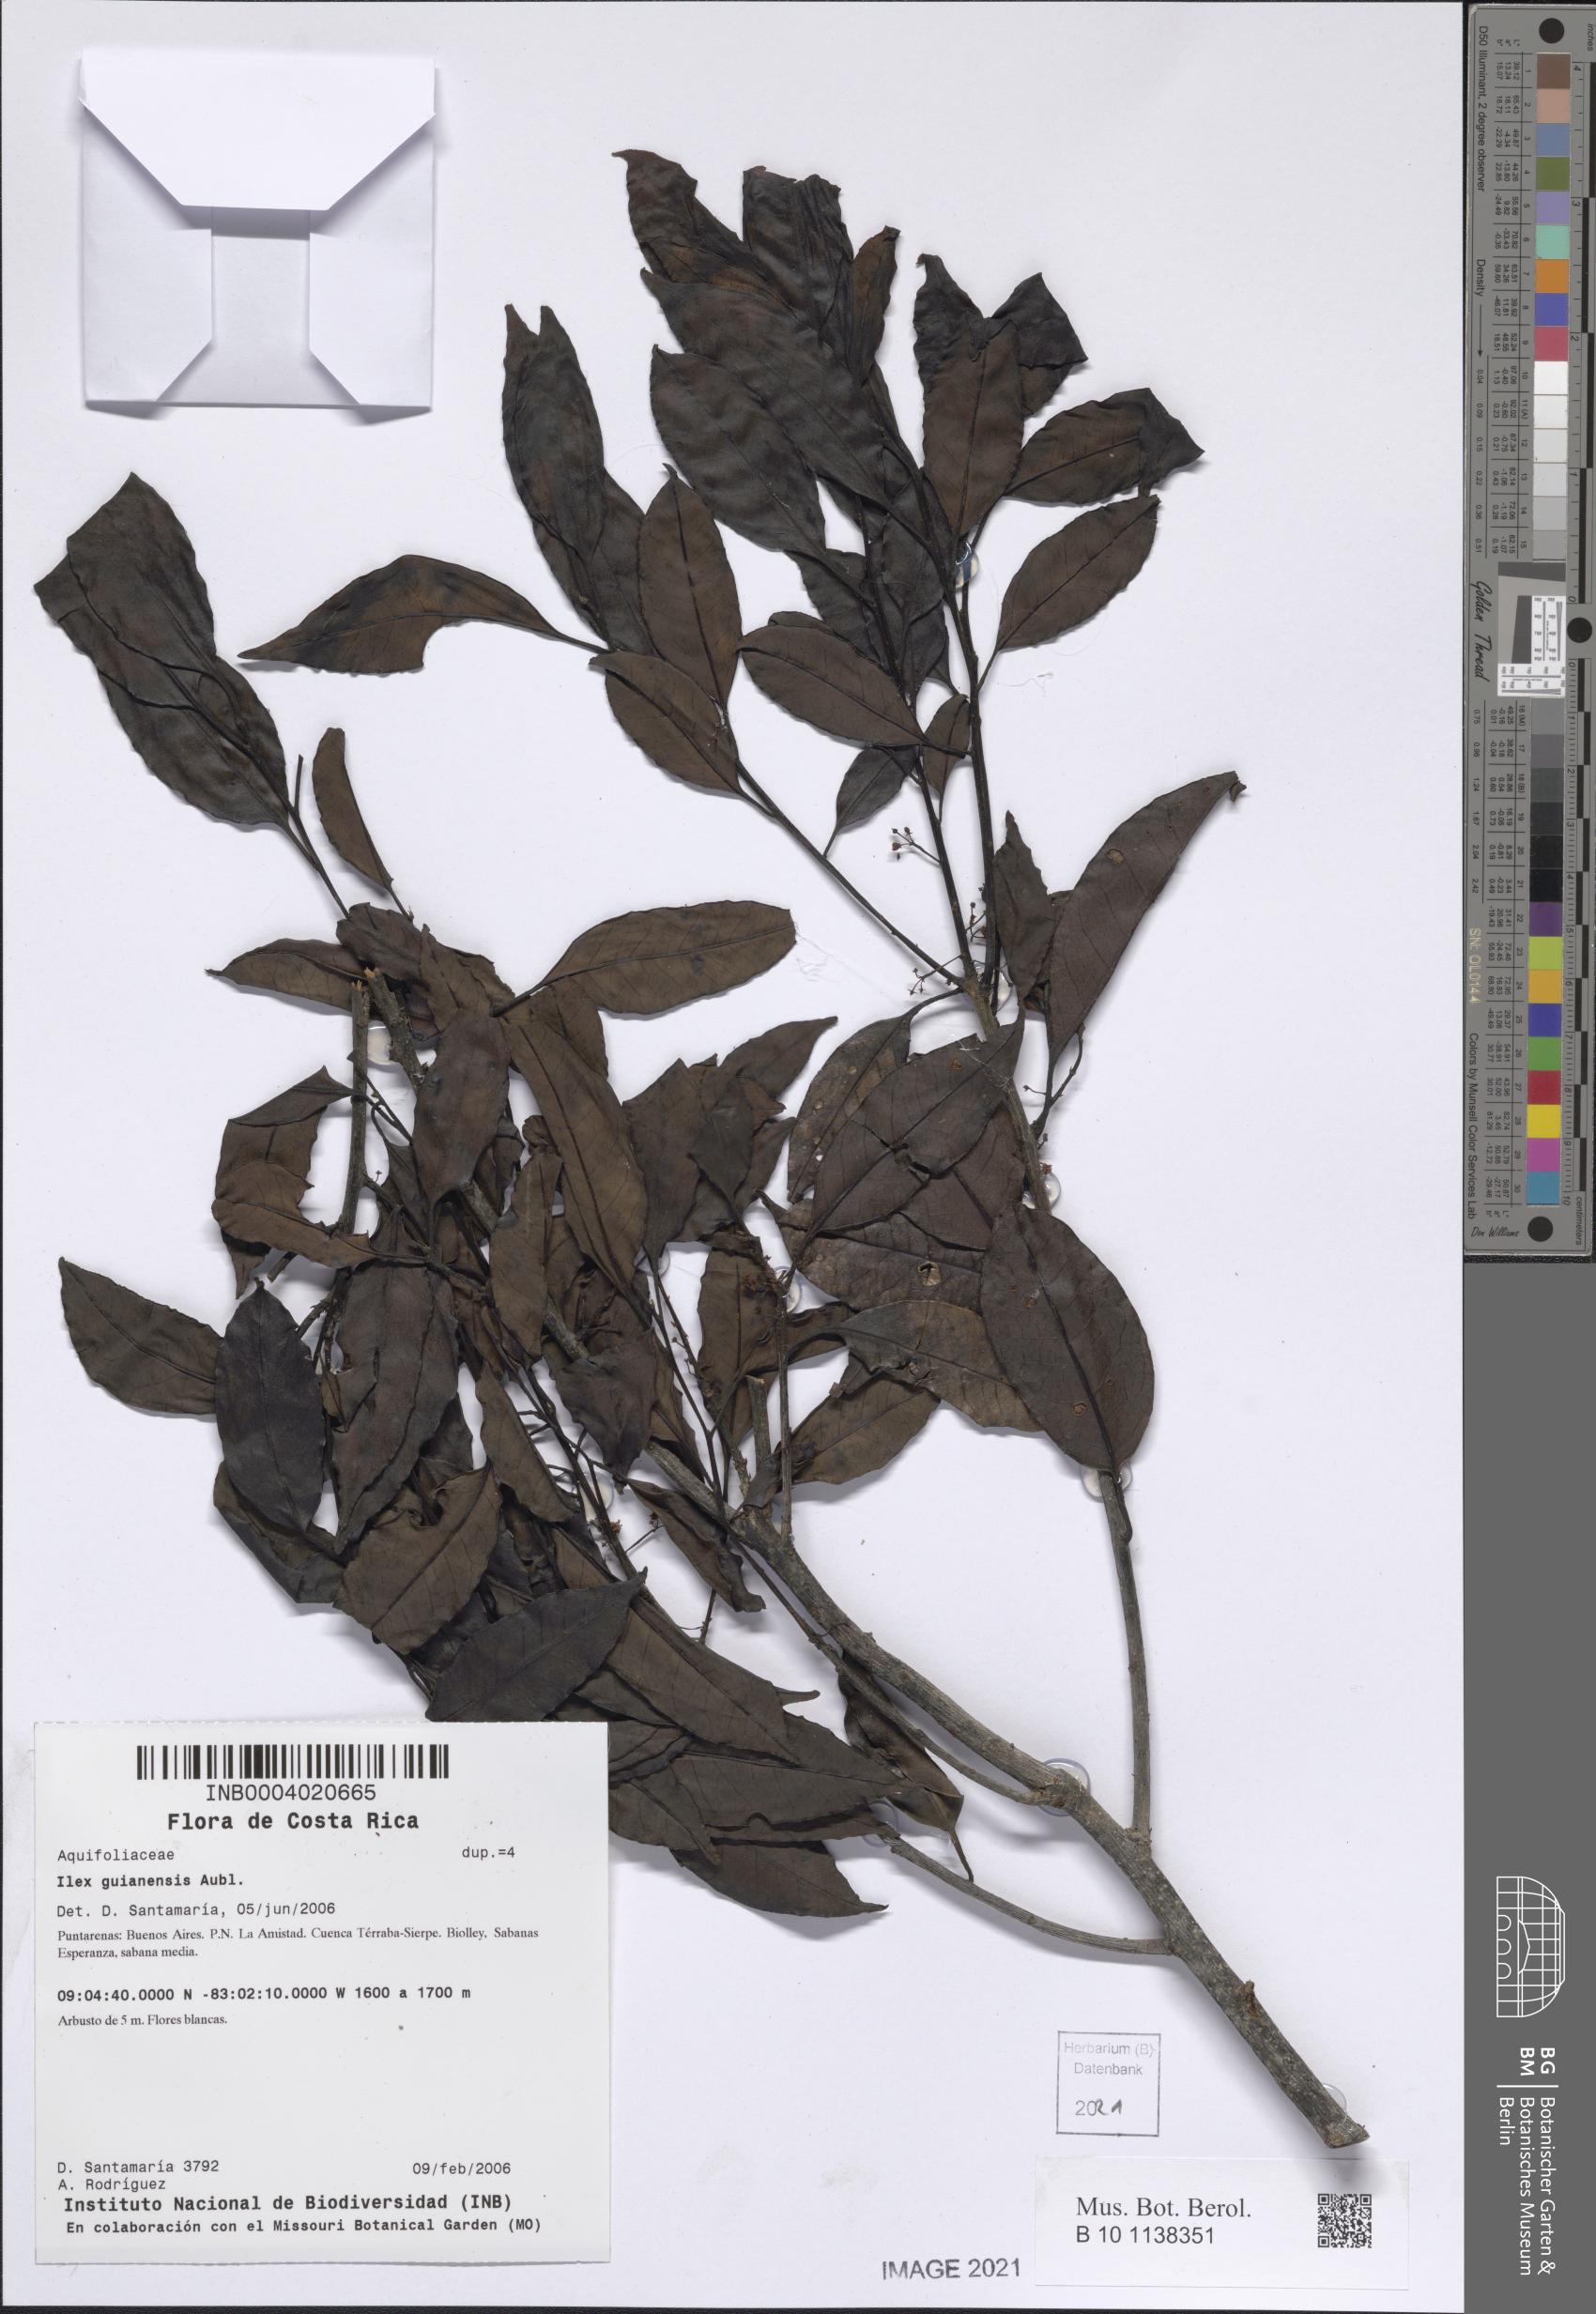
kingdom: Plantae
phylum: Tracheophyta
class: Magnoliopsida
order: Aquifoliales
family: Aquifoliaceae
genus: Ilex
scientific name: Ilex guianensis
